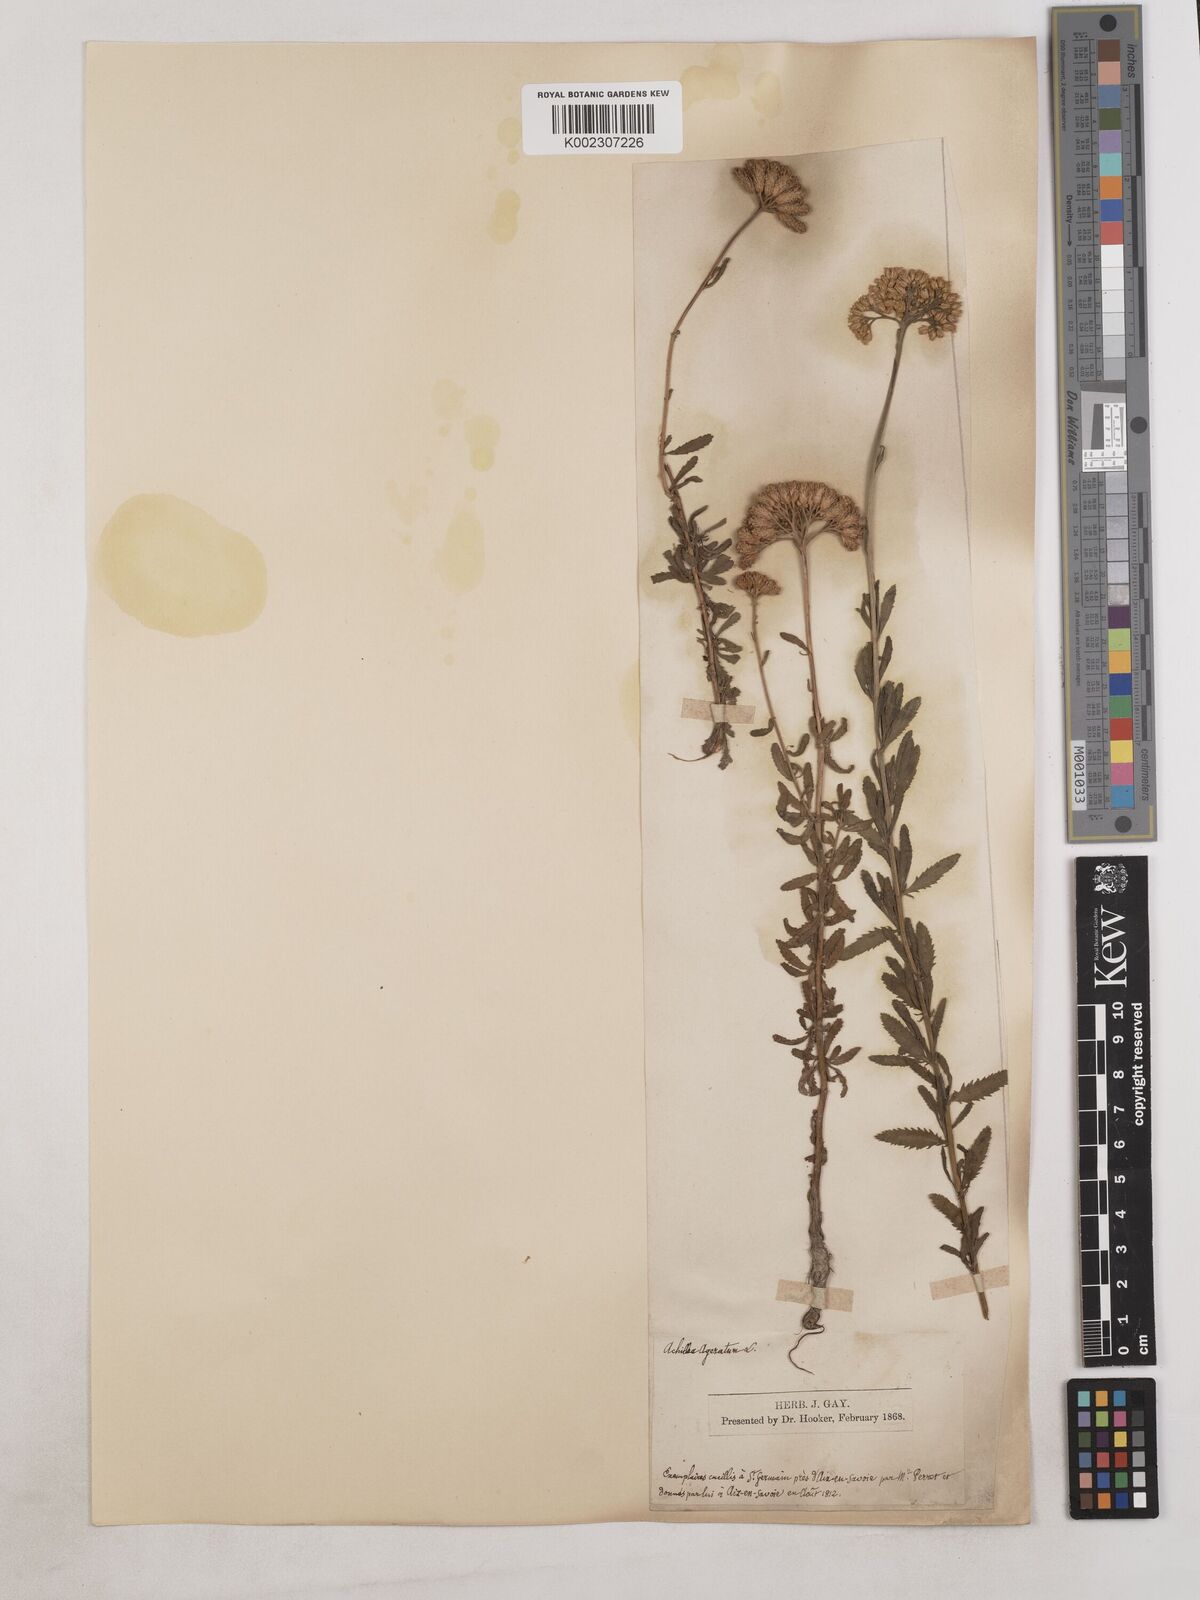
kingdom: Plantae
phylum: Tracheophyta
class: Magnoliopsida
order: Asterales
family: Asteraceae
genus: Achillea
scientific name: Achillea ageratum
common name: Sweet-nancy
